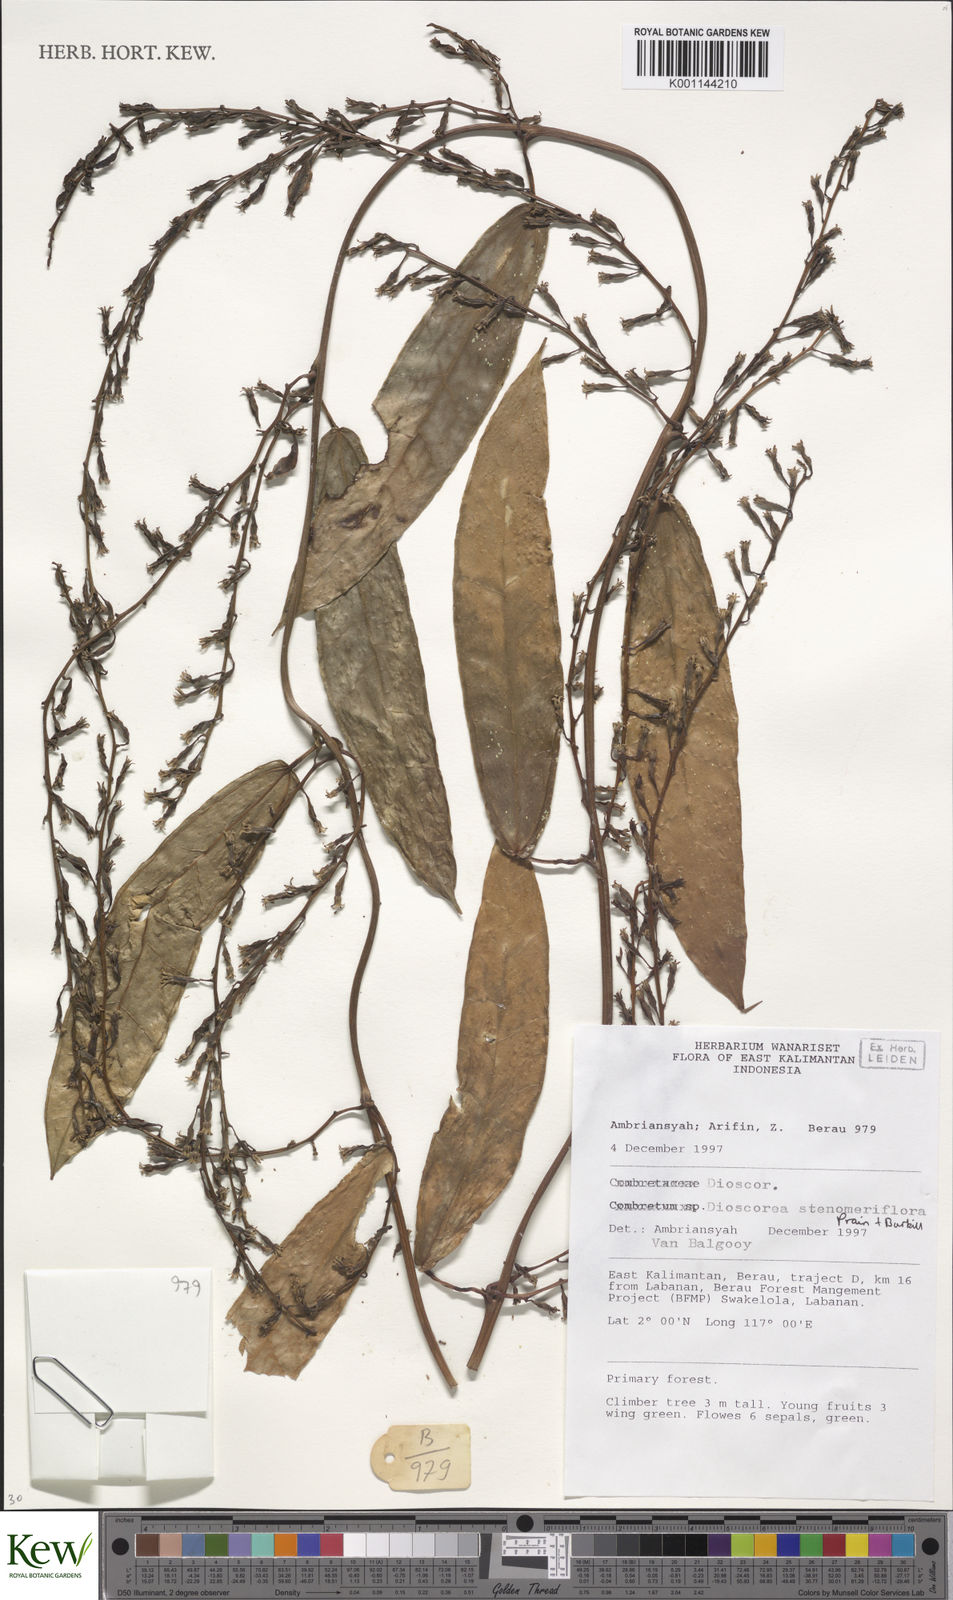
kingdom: Plantae
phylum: Tracheophyta
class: Liliopsida
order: Dioscoreales
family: Dioscoreaceae
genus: Dioscorea
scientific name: Dioscorea stenomeriflora
